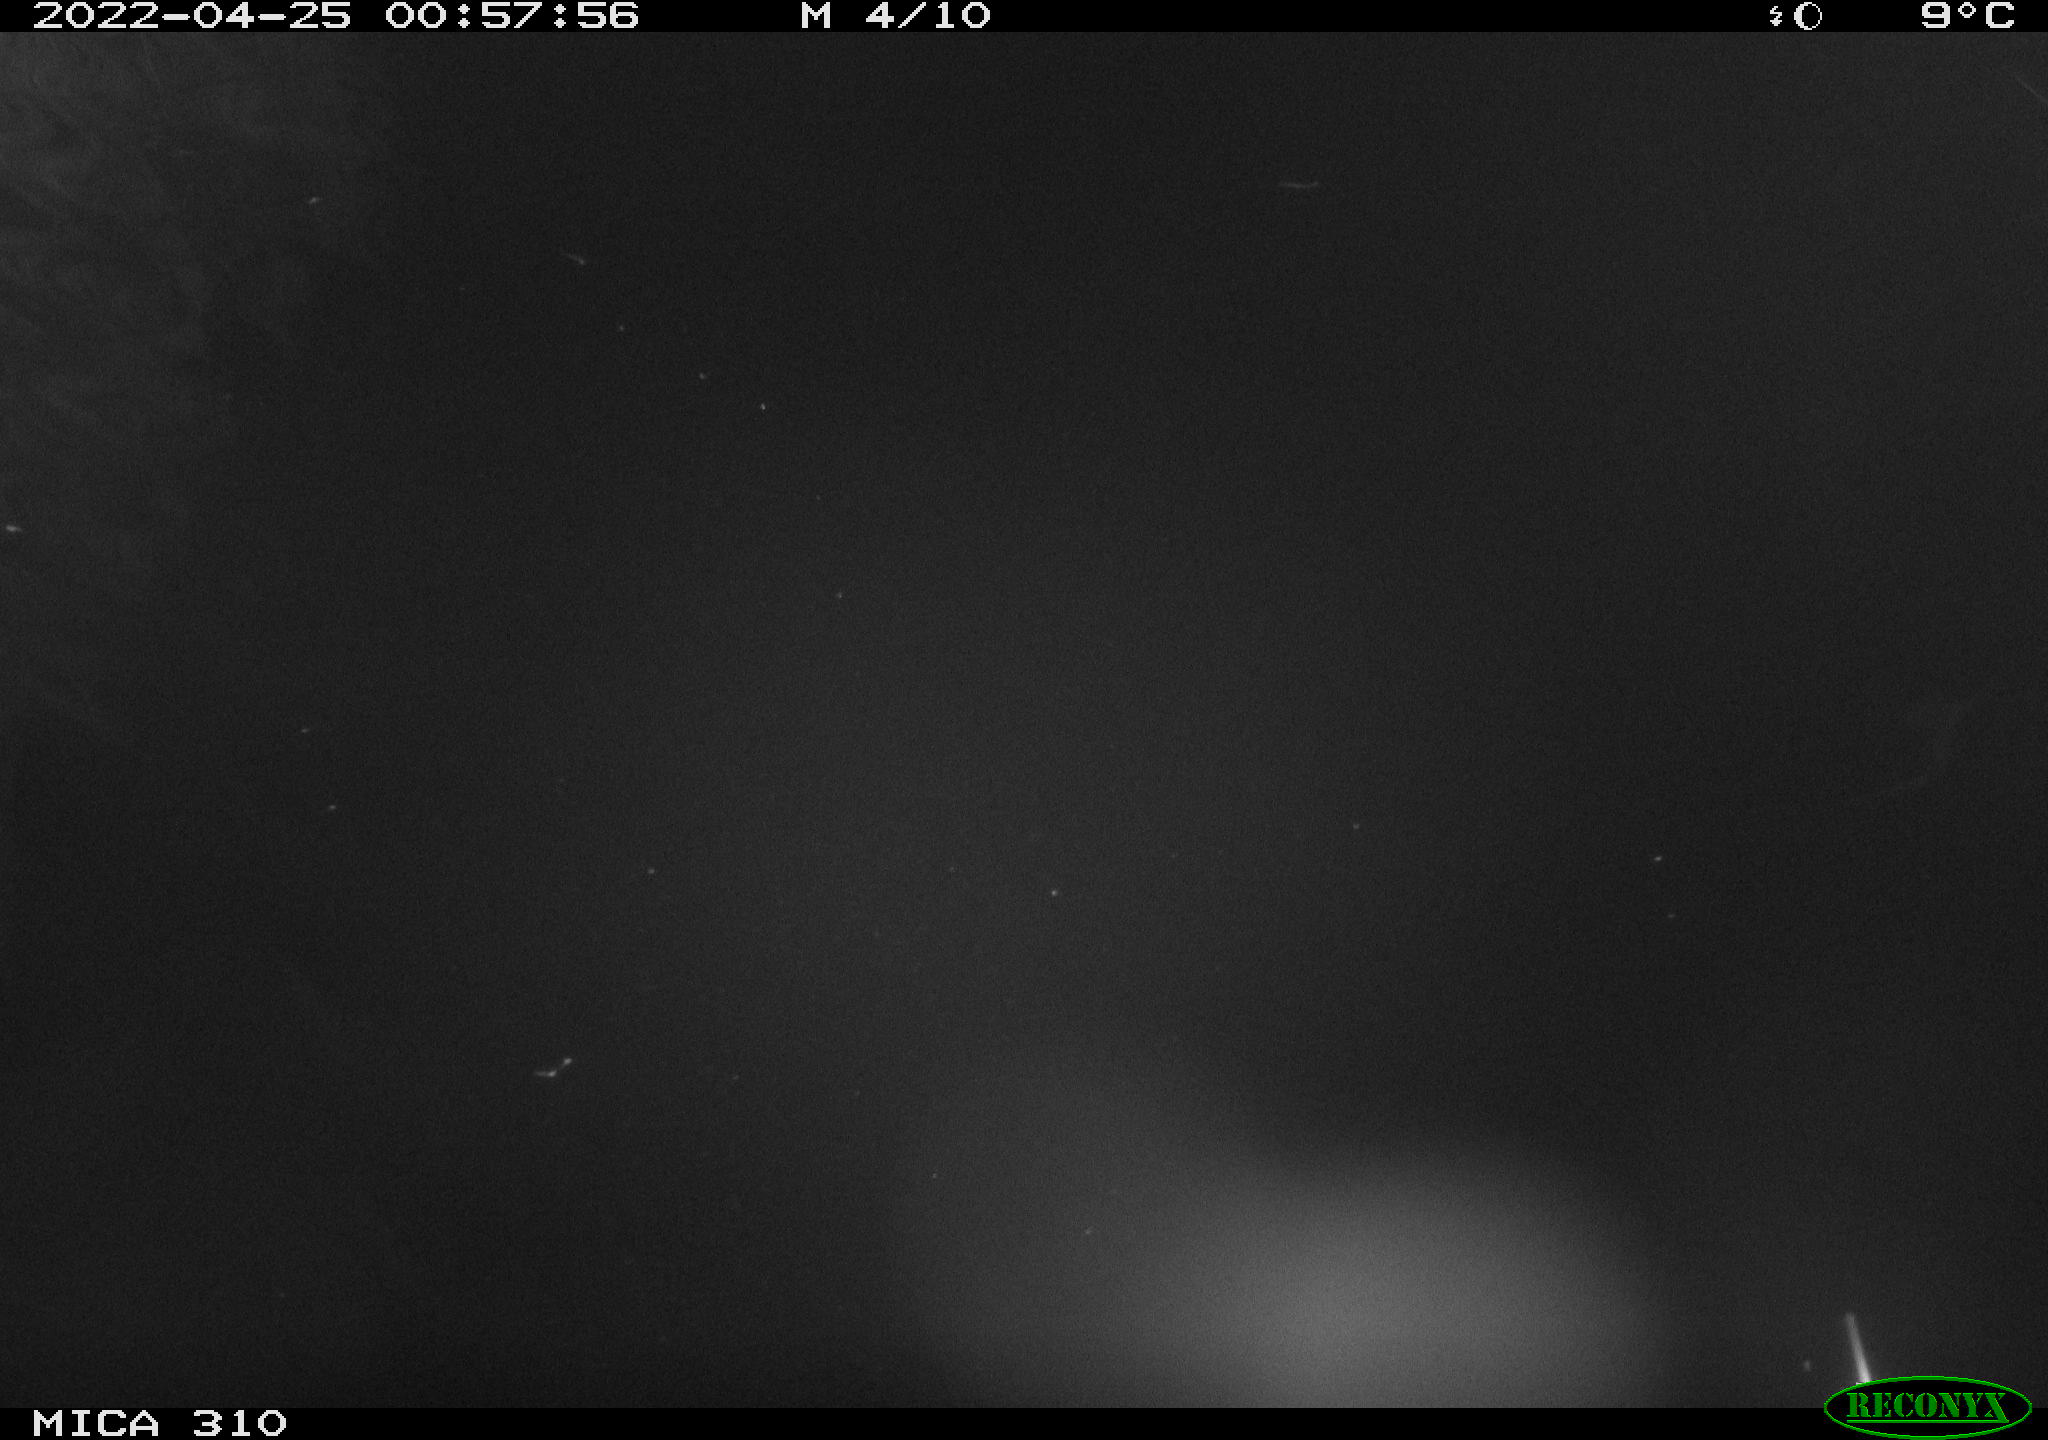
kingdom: Animalia
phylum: Chordata
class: Aves
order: Anseriformes
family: Anatidae
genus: Anas
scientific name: Anas platyrhynchos
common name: Mallard
